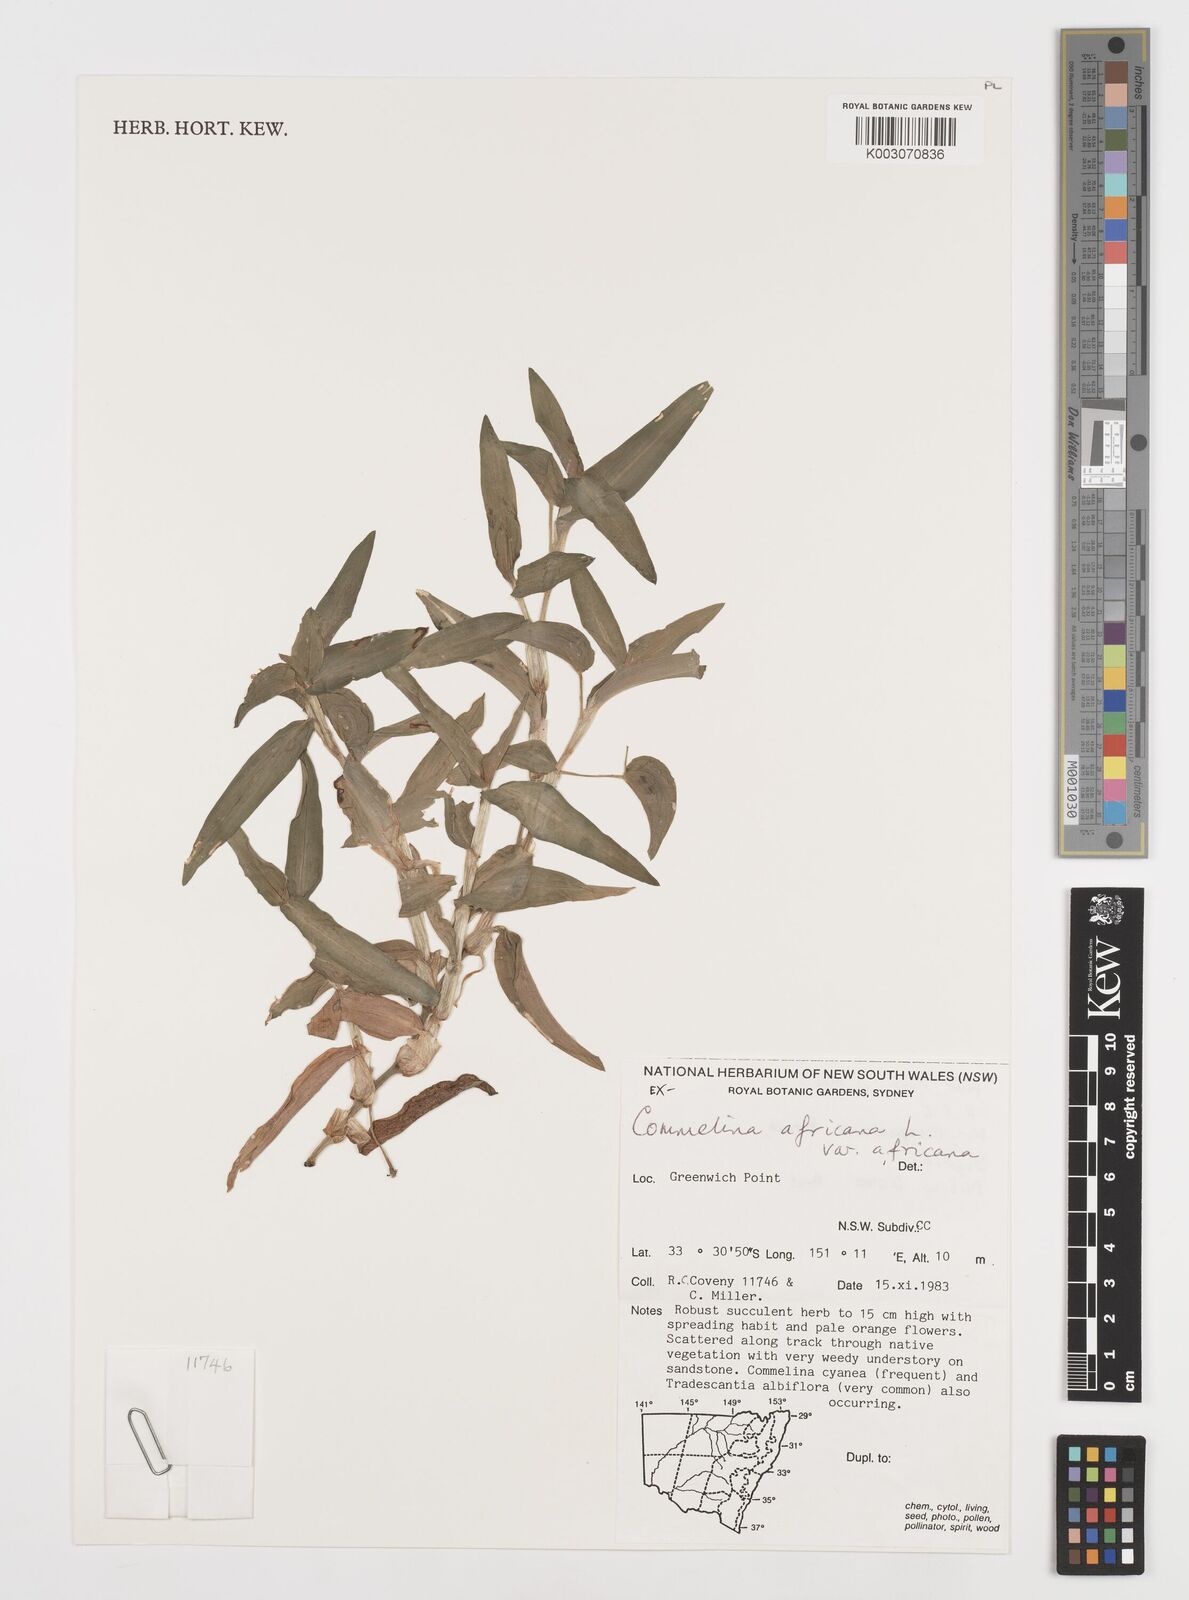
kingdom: Plantae
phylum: Tracheophyta
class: Liliopsida
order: Commelinales
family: Commelinaceae
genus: Commelina
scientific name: Commelina africana
